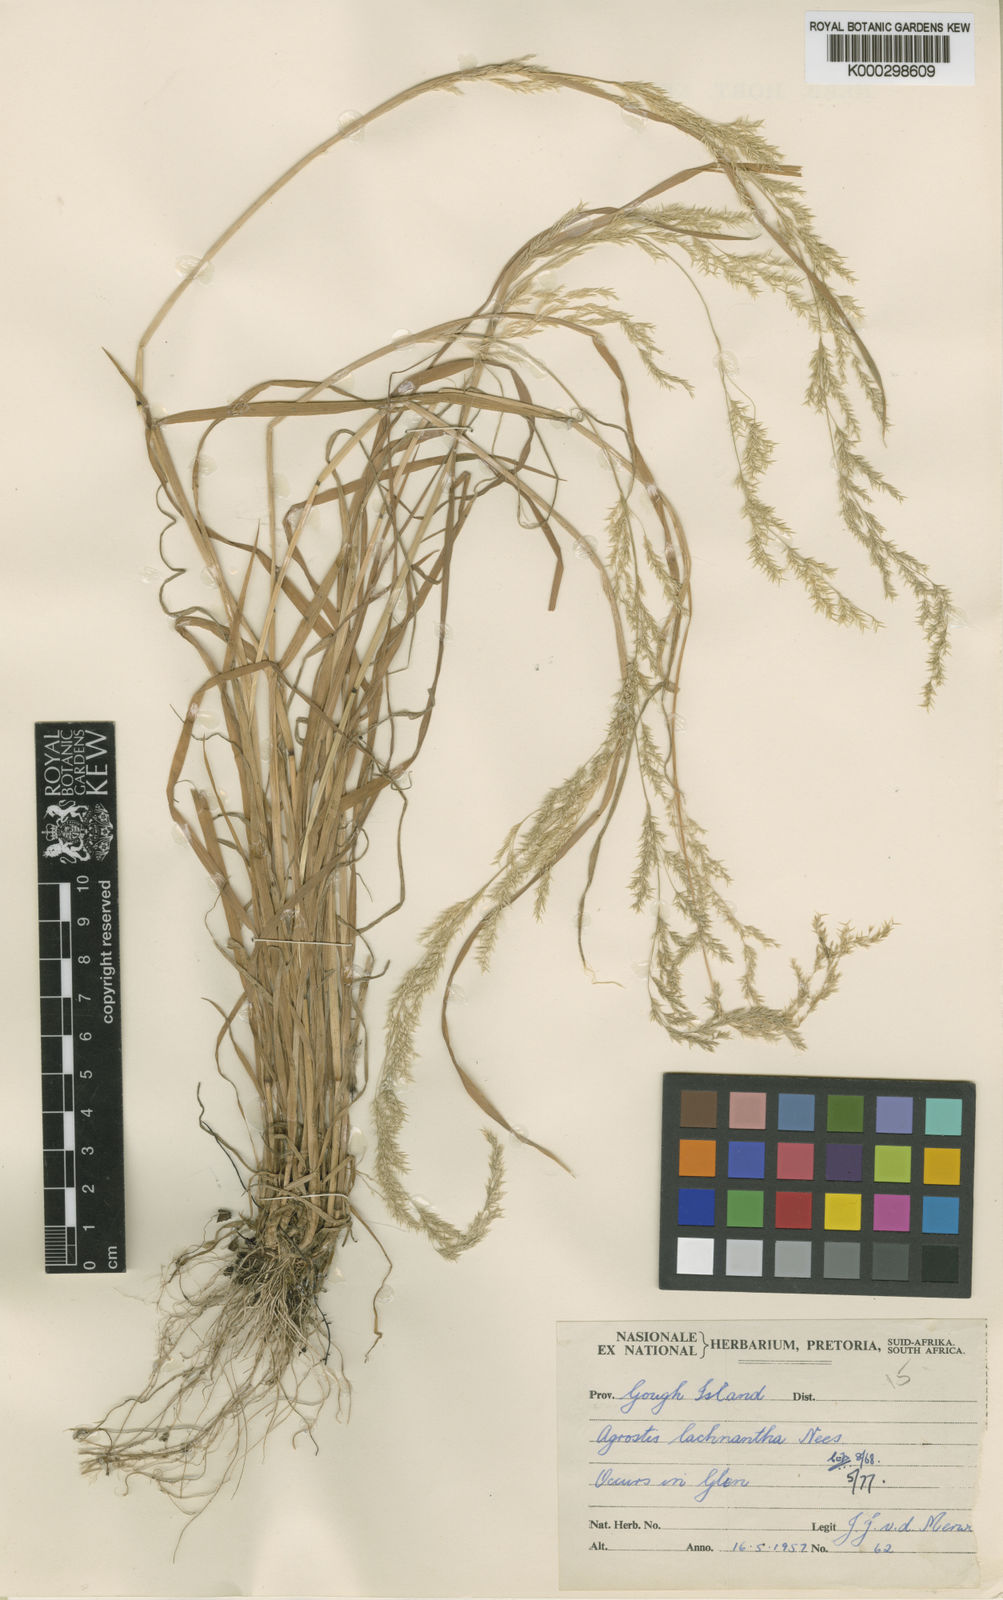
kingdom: Plantae
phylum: Tracheophyta
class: Liliopsida
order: Poales
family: Poaceae
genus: Lachnagrostis
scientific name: Lachnagrostis lachnantha
